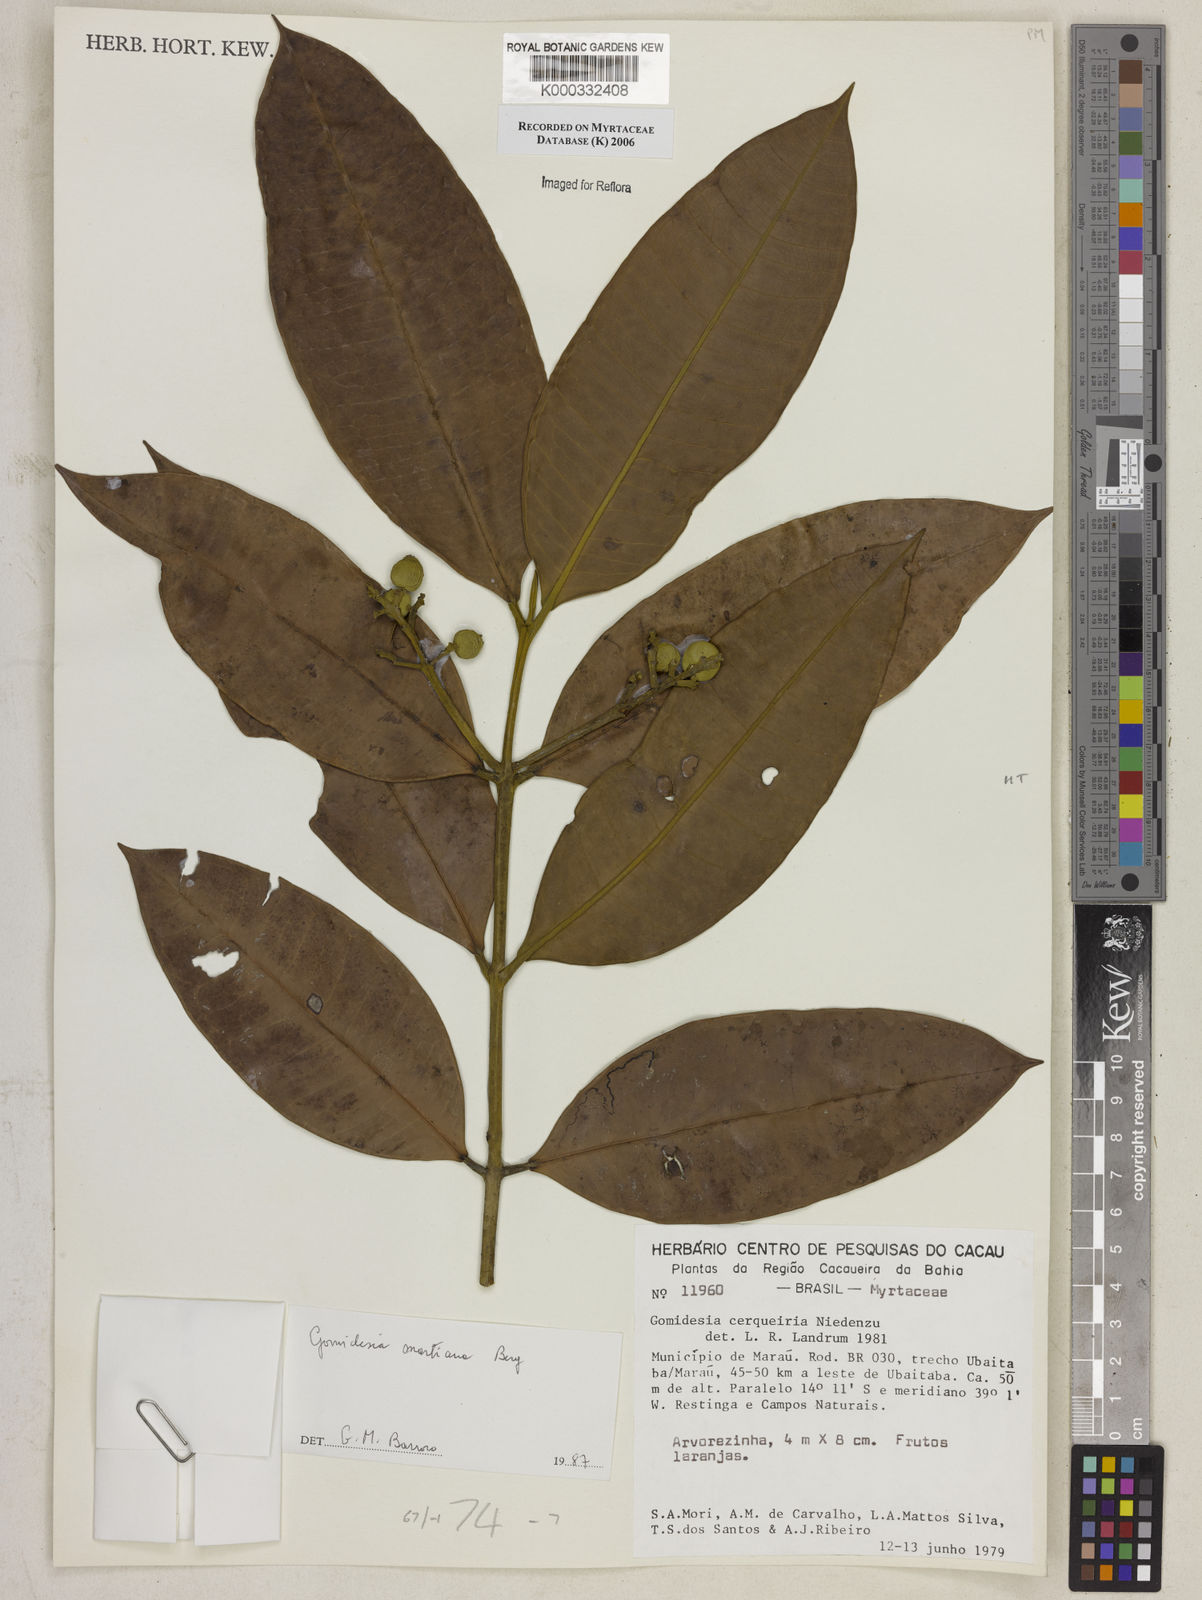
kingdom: Plantae
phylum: Tracheophyta
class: Magnoliopsida
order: Myrtales
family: Myrtaceae
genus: Myrcia
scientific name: Myrcia vittoriana
